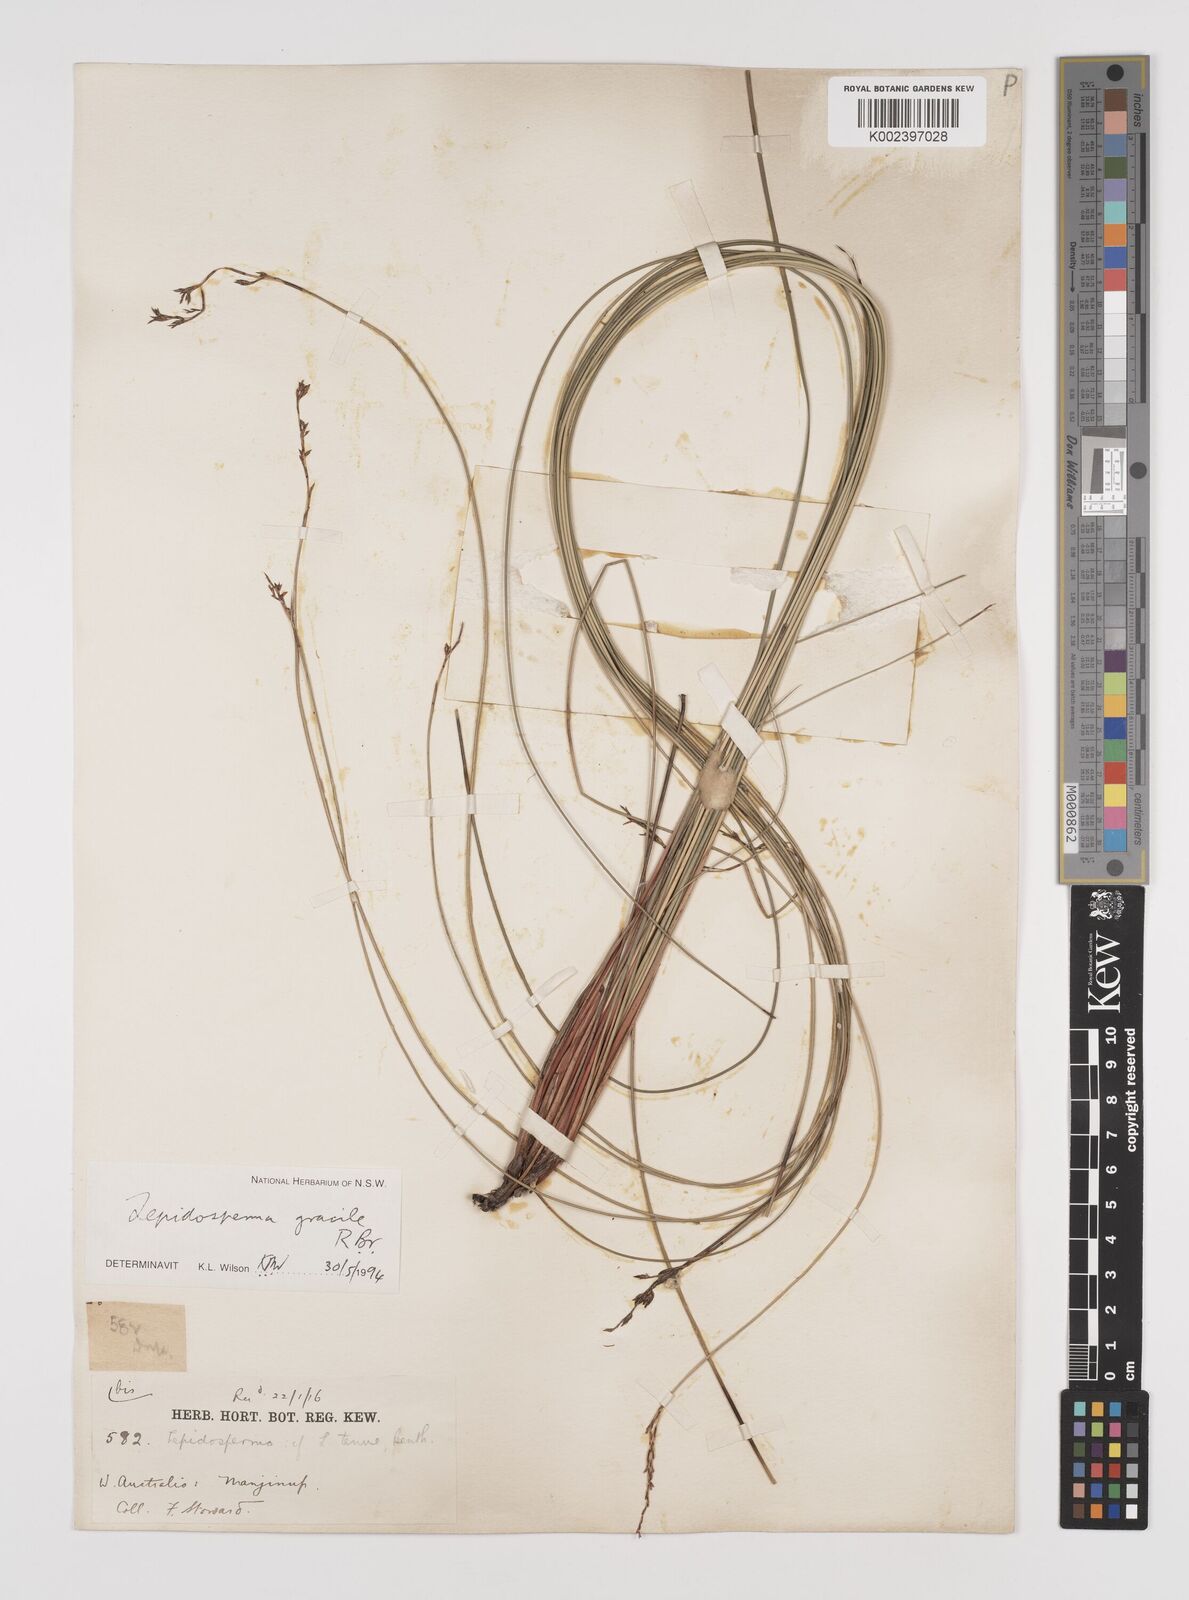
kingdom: Plantae
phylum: Tracheophyta
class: Liliopsida
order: Poales
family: Cyperaceae
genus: Lepidosperma
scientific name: Lepidosperma gracile
